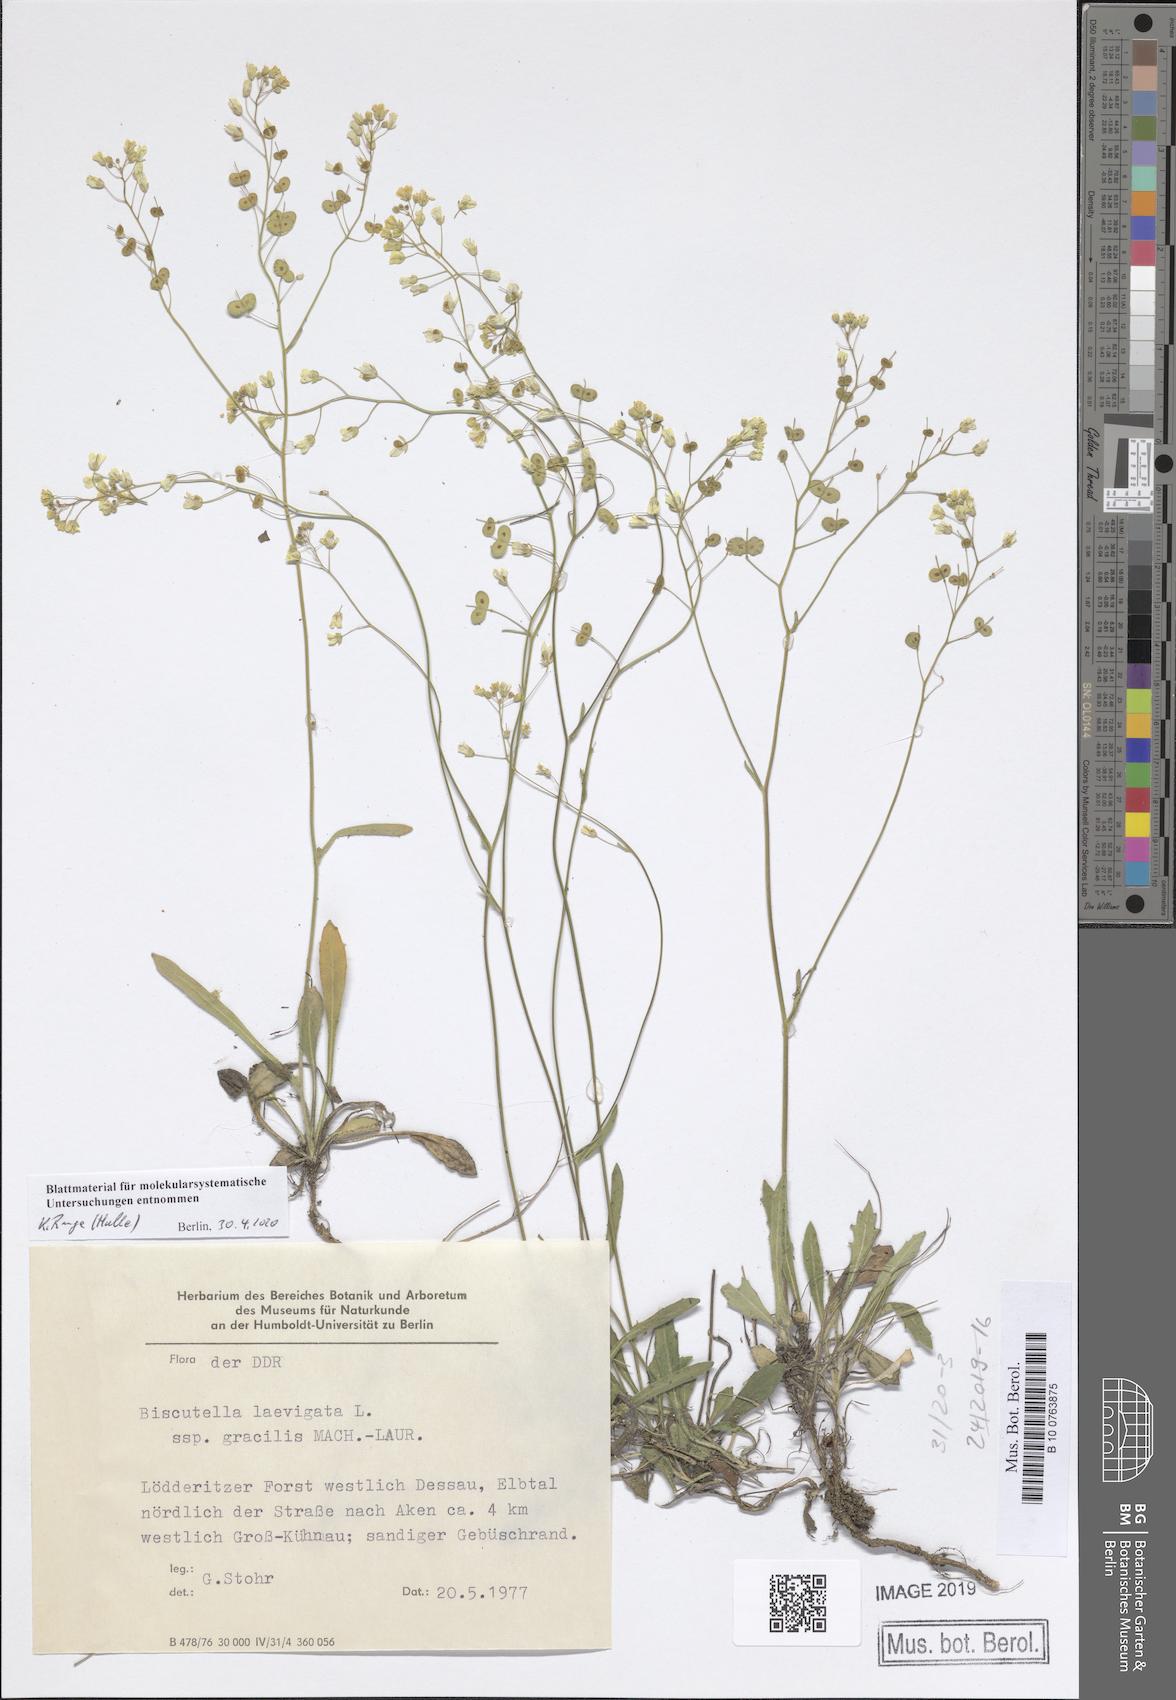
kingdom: Plantae
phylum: Tracheophyta
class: Magnoliopsida
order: Brassicales
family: Brassicaceae
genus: Biscutella
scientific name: Biscutella laevigata
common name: Buckler mustard
